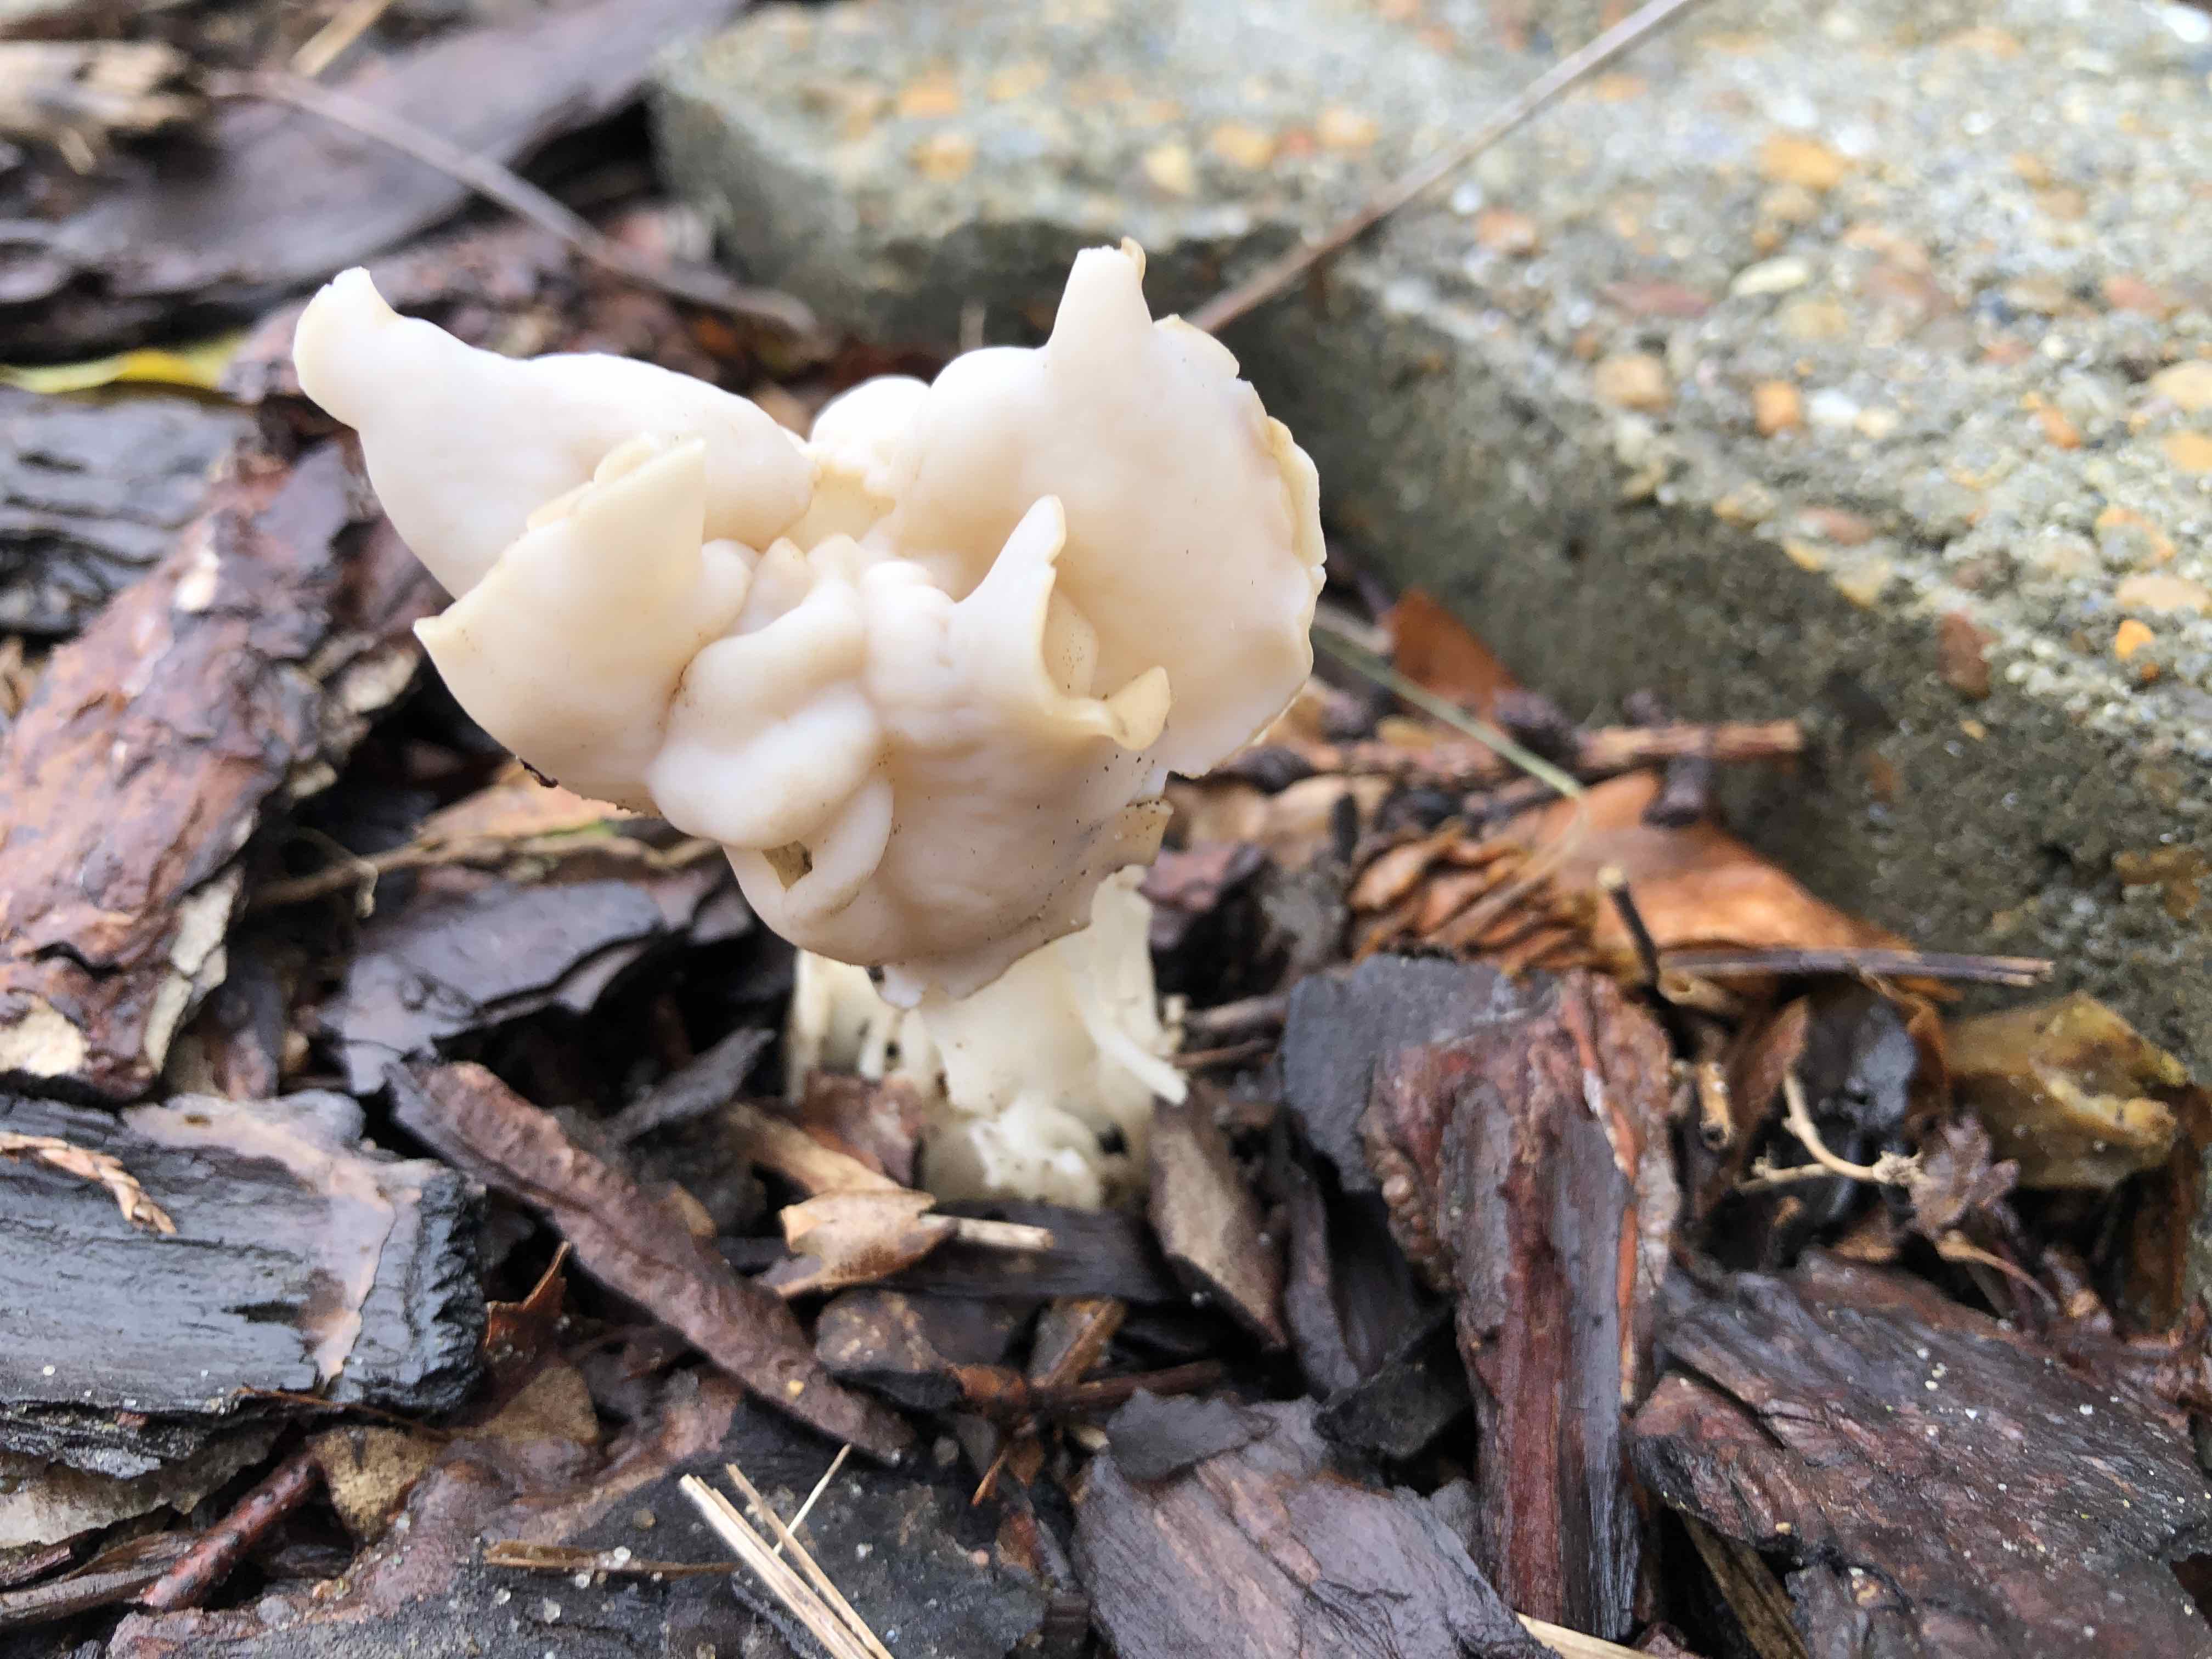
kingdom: Fungi
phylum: Ascomycota
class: Pezizomycetes
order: Pezizales
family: Helvellaceae
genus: Helvella
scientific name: Helvella crispa
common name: kruset foldhat
